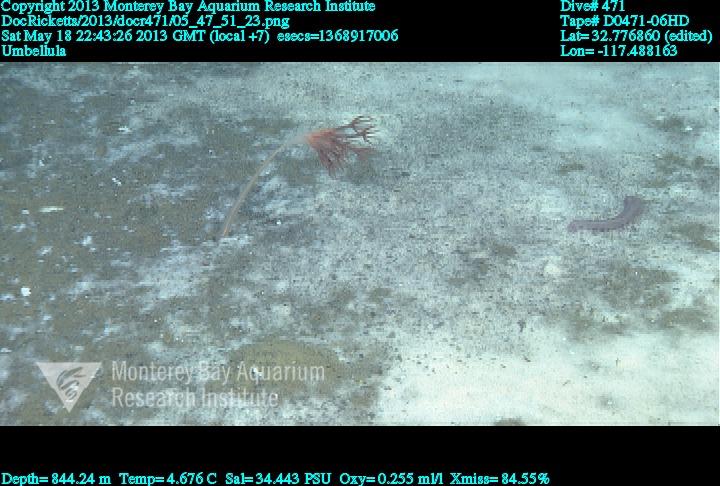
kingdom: Animalia
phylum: Cnidaria
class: Anthozoa
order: Scleralcyonacea
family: Umbellulidae
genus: Umbellula
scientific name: Umbellula
